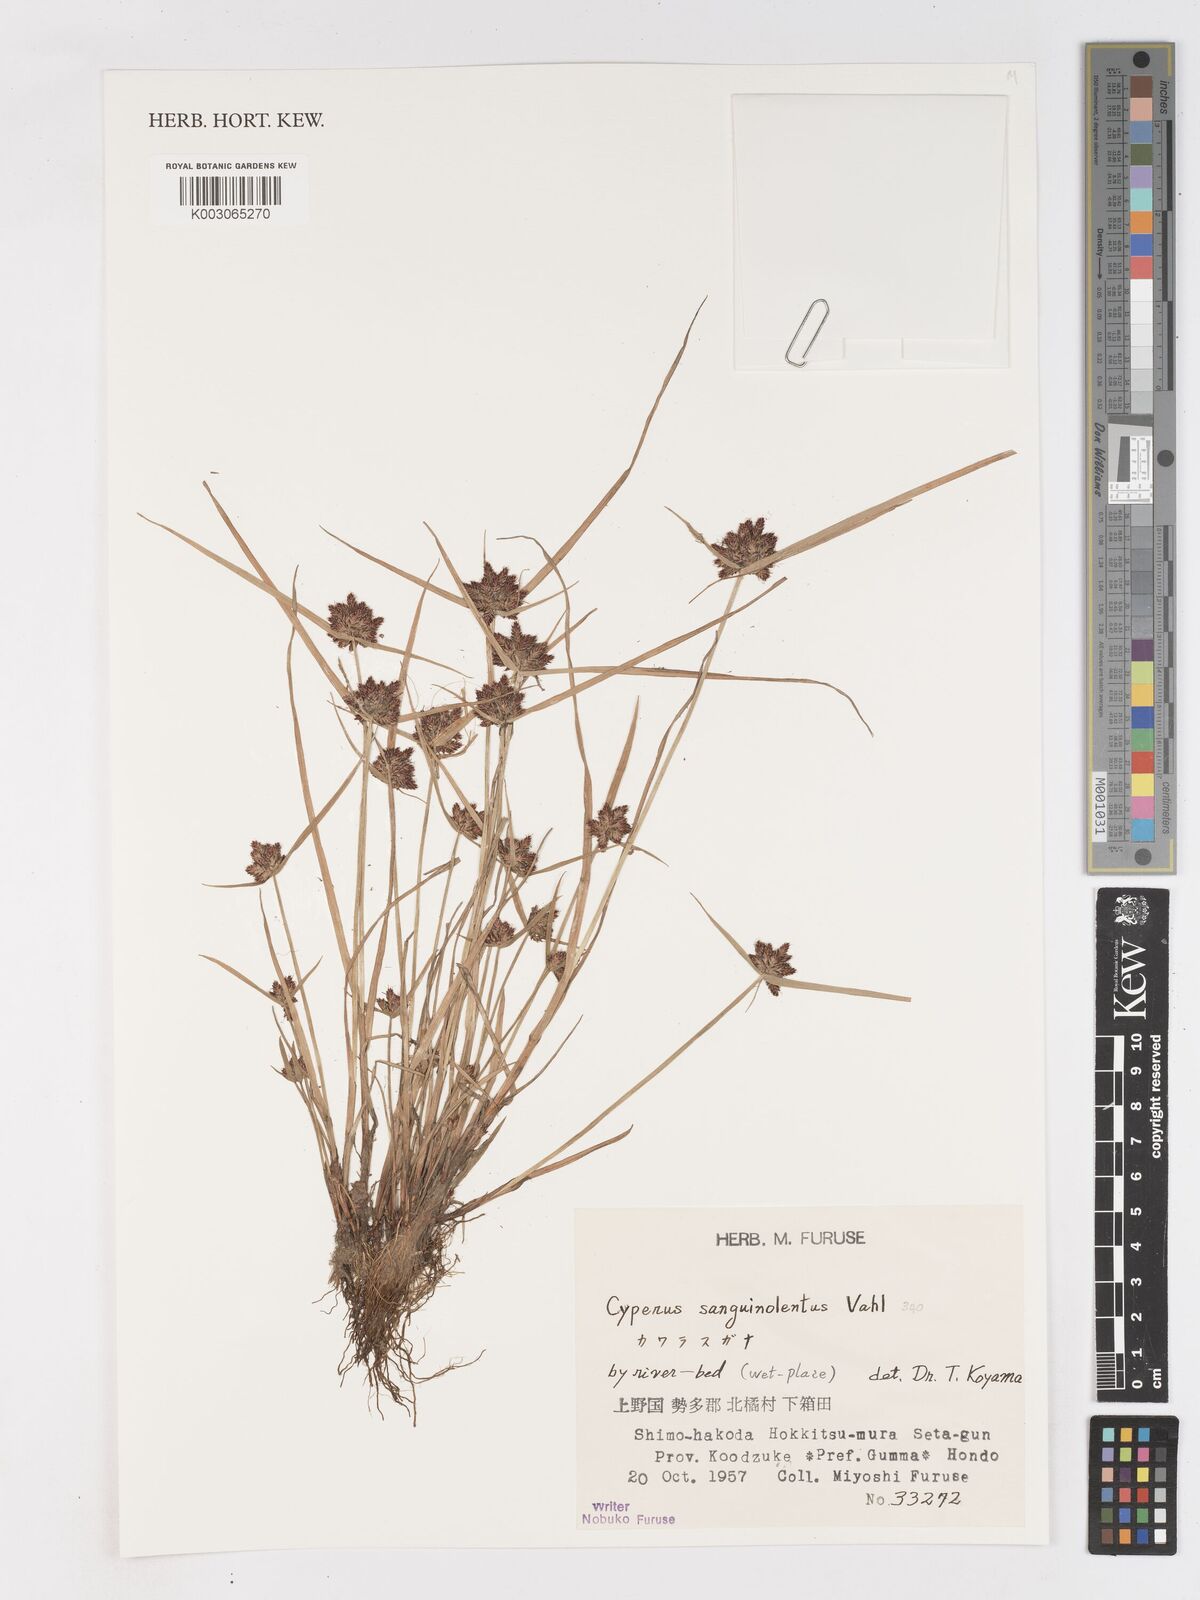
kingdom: Plantae
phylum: Tracheophyta
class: Liliopsida
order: Poales
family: Cyperaceae
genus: Cyperus
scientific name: Cyperus sanguinolentus
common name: Purpleglume flatsedge
